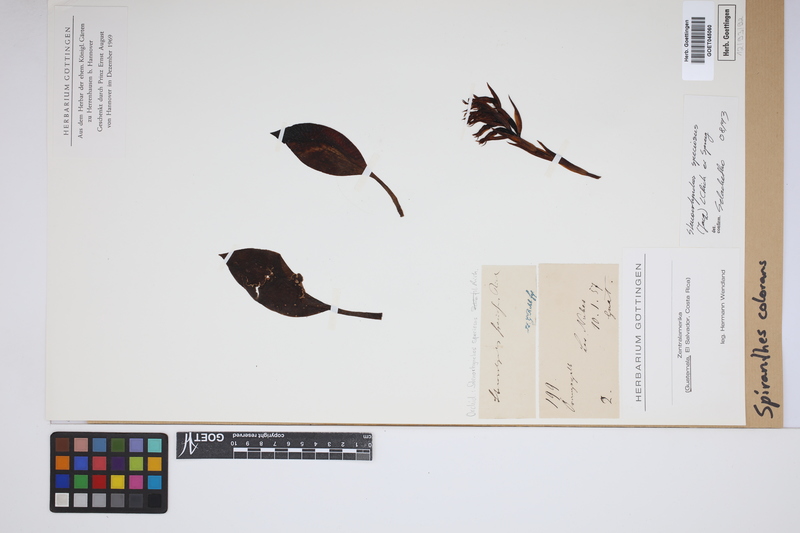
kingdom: Plantae
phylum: Tracheophyta
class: Liliopsida
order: Asparagales
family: Orchidaceae
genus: Stenorrhynchos
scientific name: Stenorrhynchos speciosum
